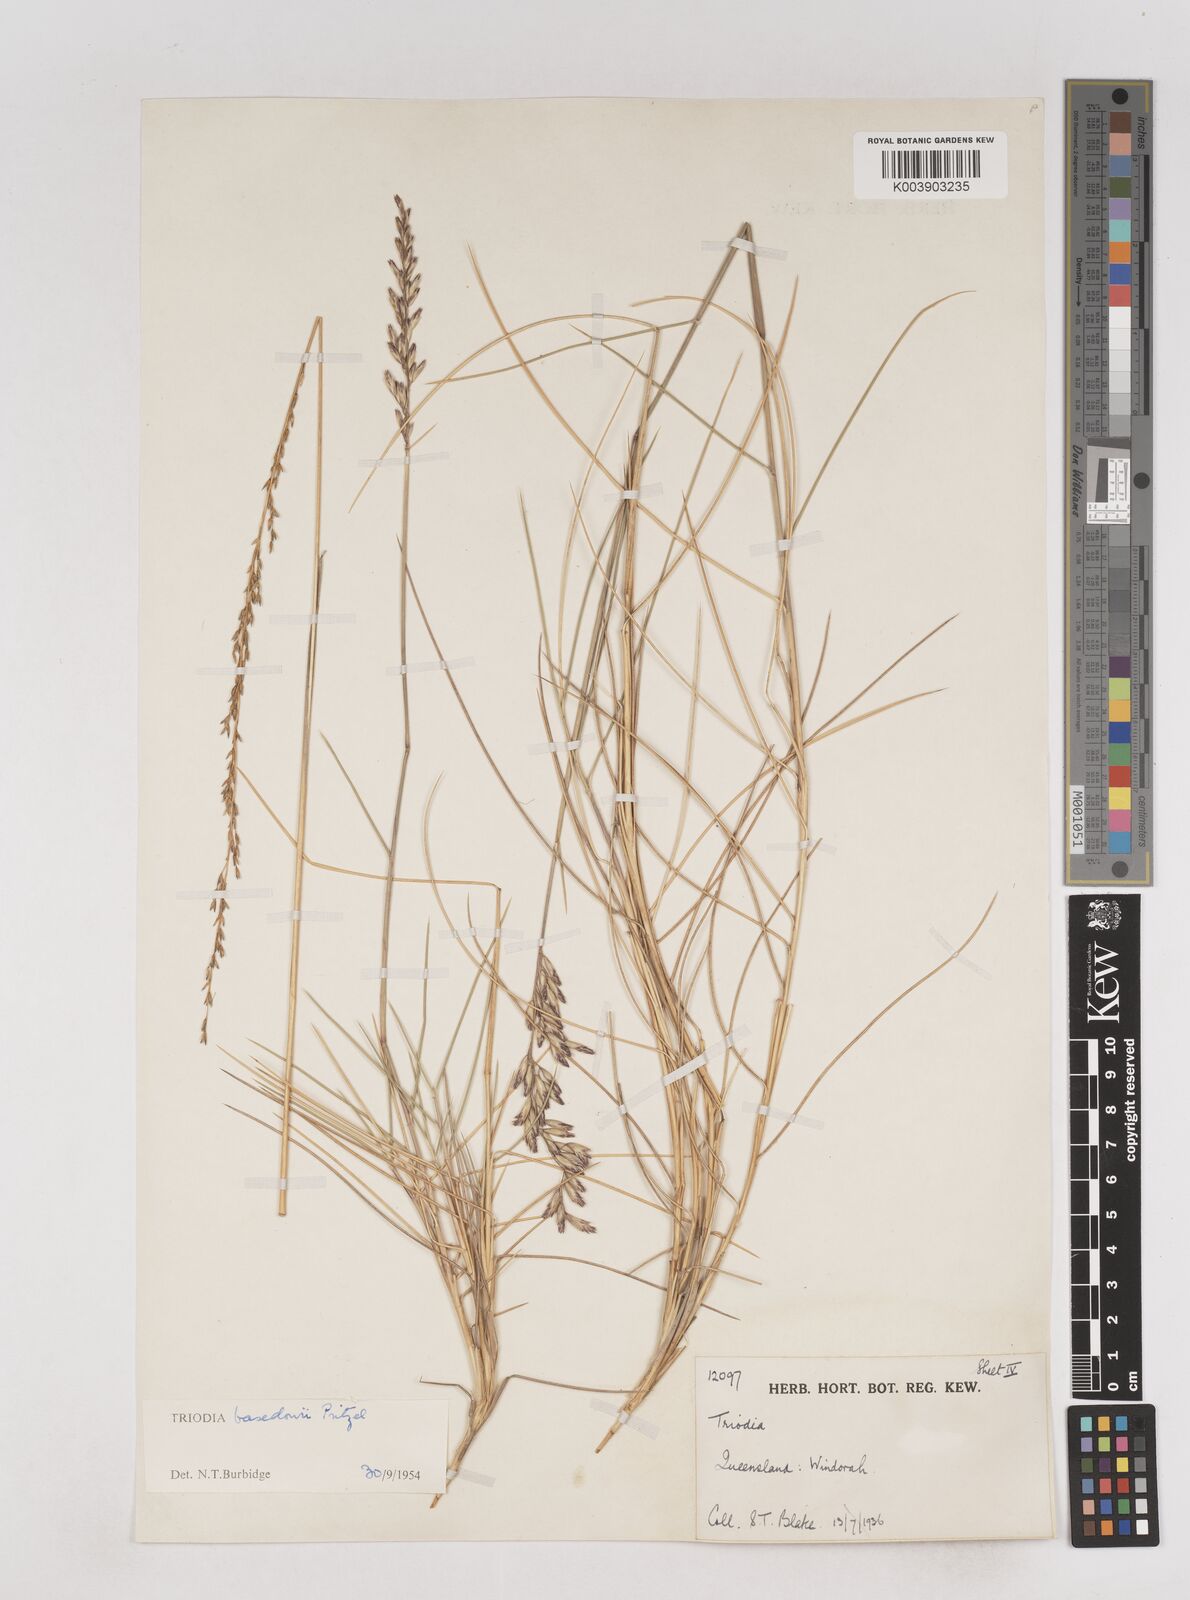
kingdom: Plantae
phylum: Tracheophyta
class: Liliopsida
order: Poales
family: Poaceae
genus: Triodia
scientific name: Triodia basedowii
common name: Hard spinifex
